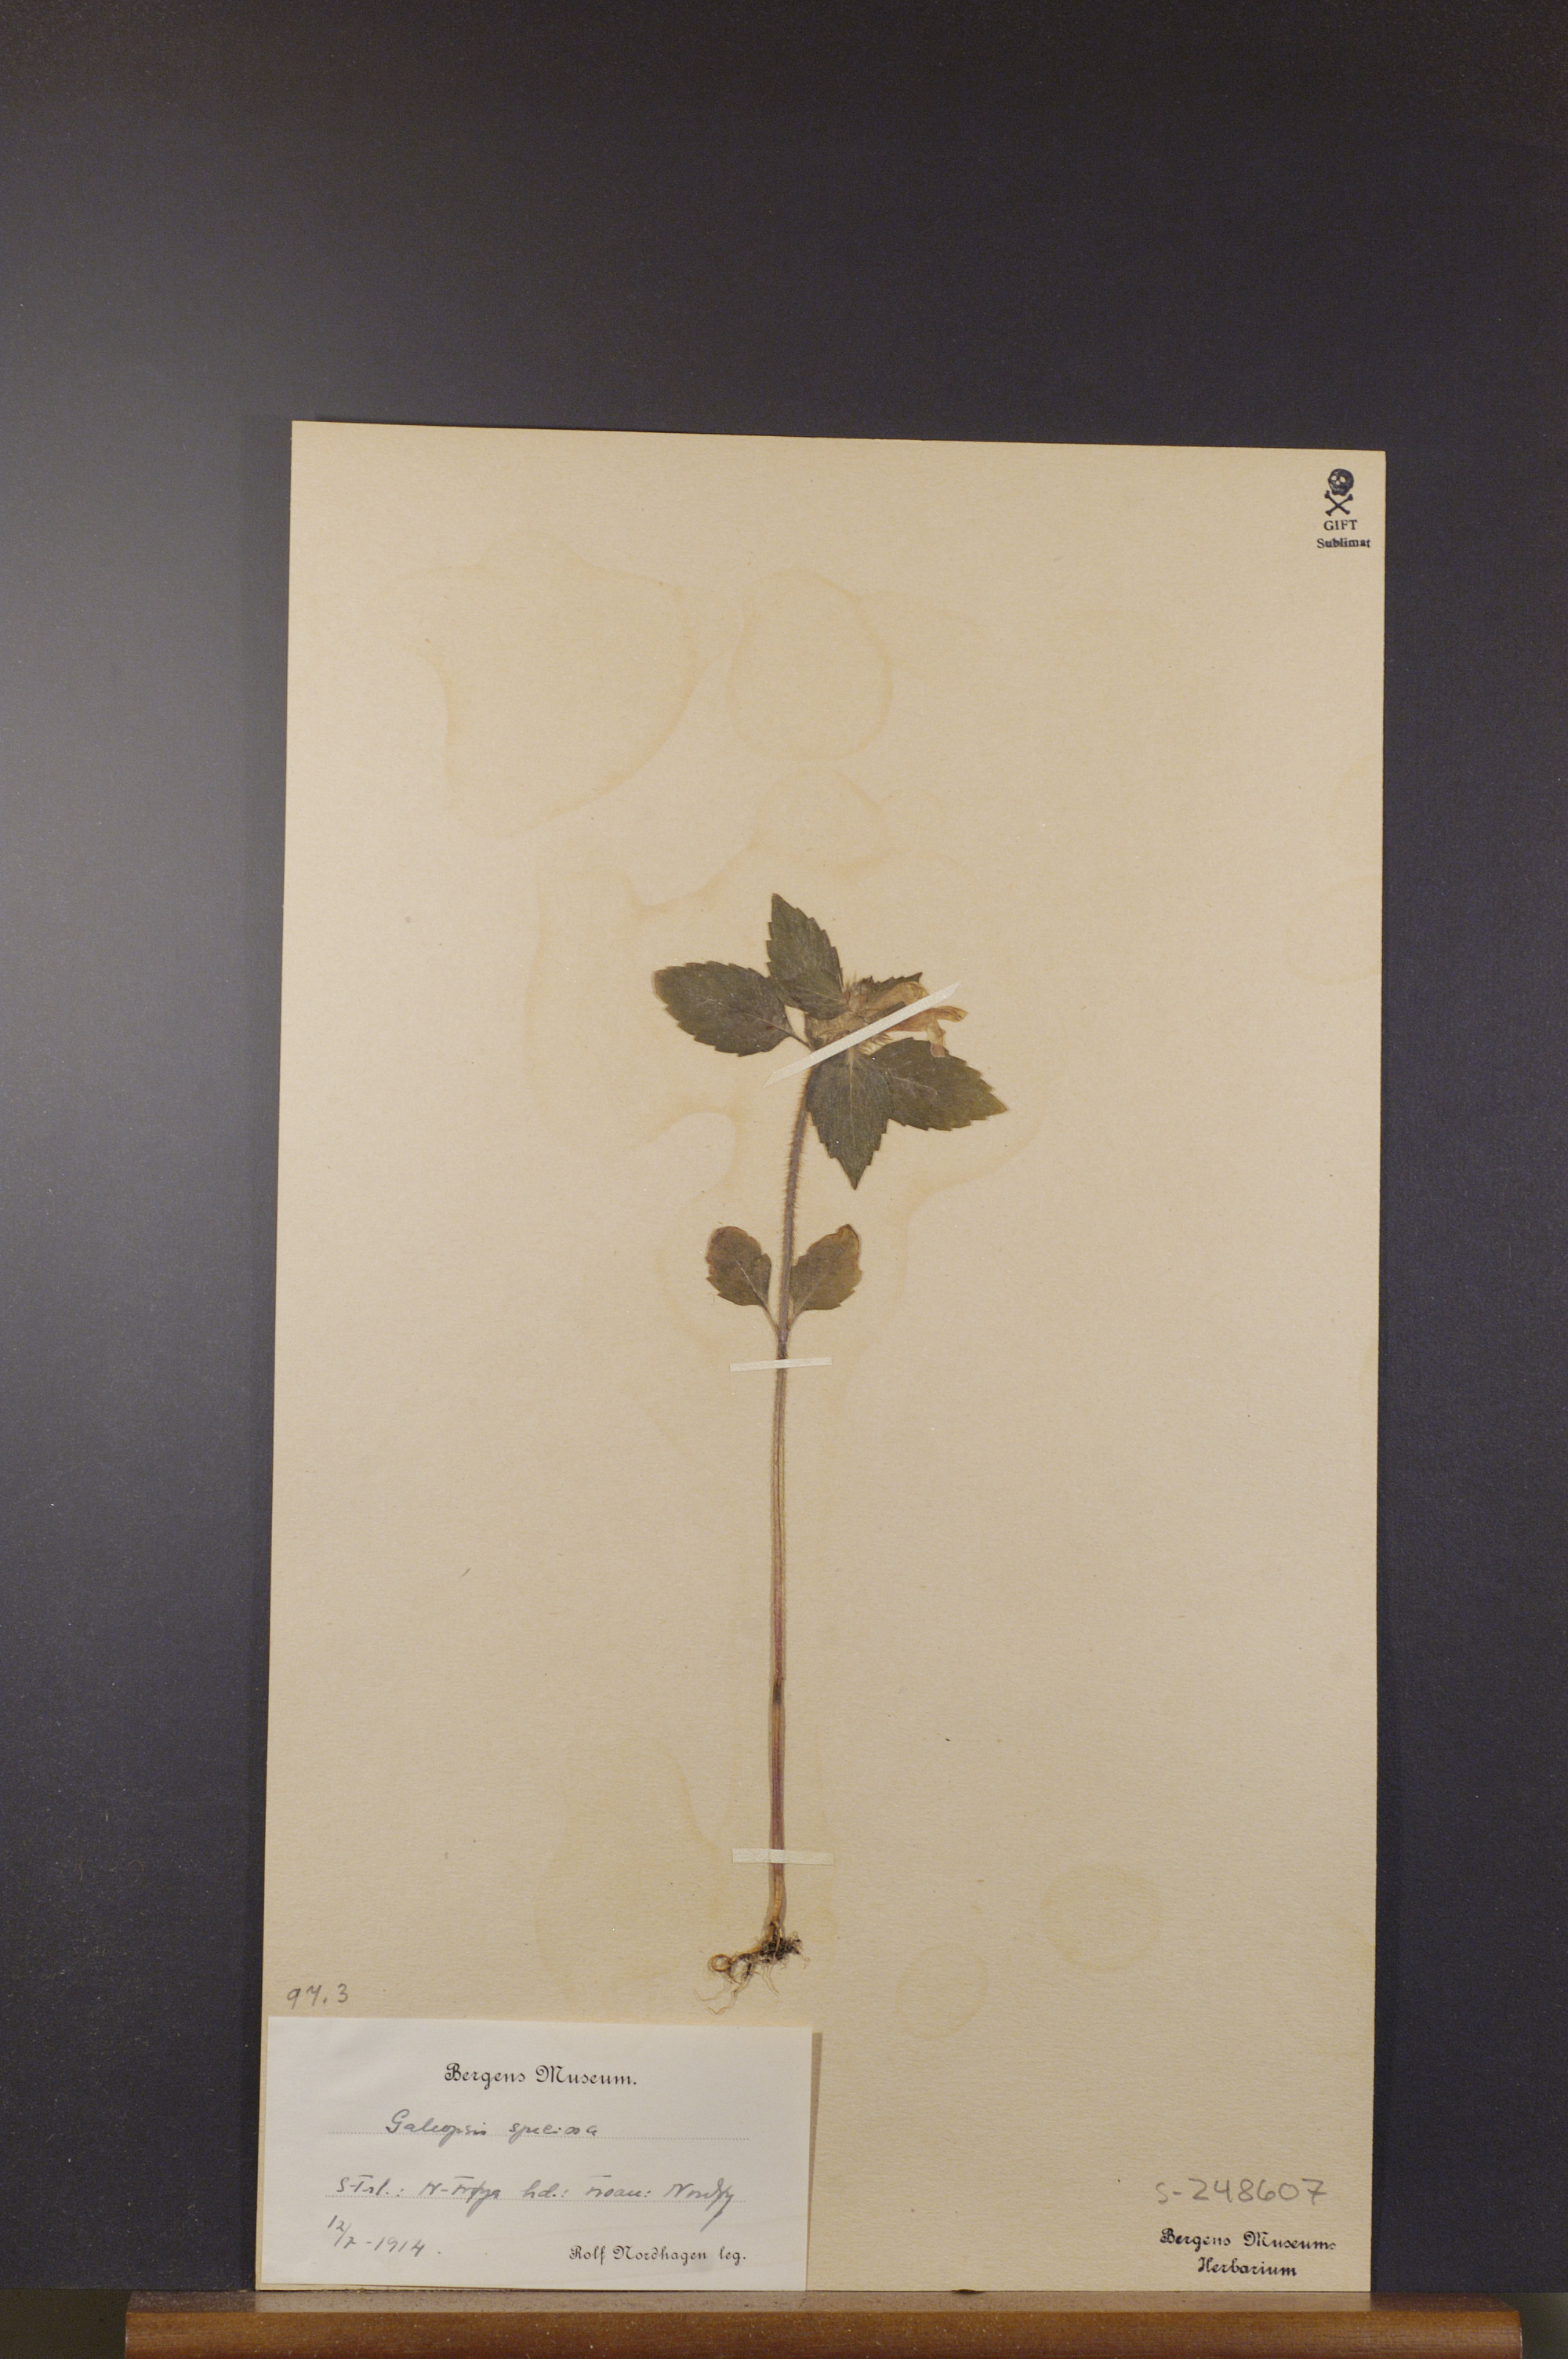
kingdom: Plantae
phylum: Tracheophyta
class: Magnoliopsida
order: Lamiales
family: Lamiaceae
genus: Galeopsis
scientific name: Galeopsis speciosa
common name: Large-flowered hemp-nettle
